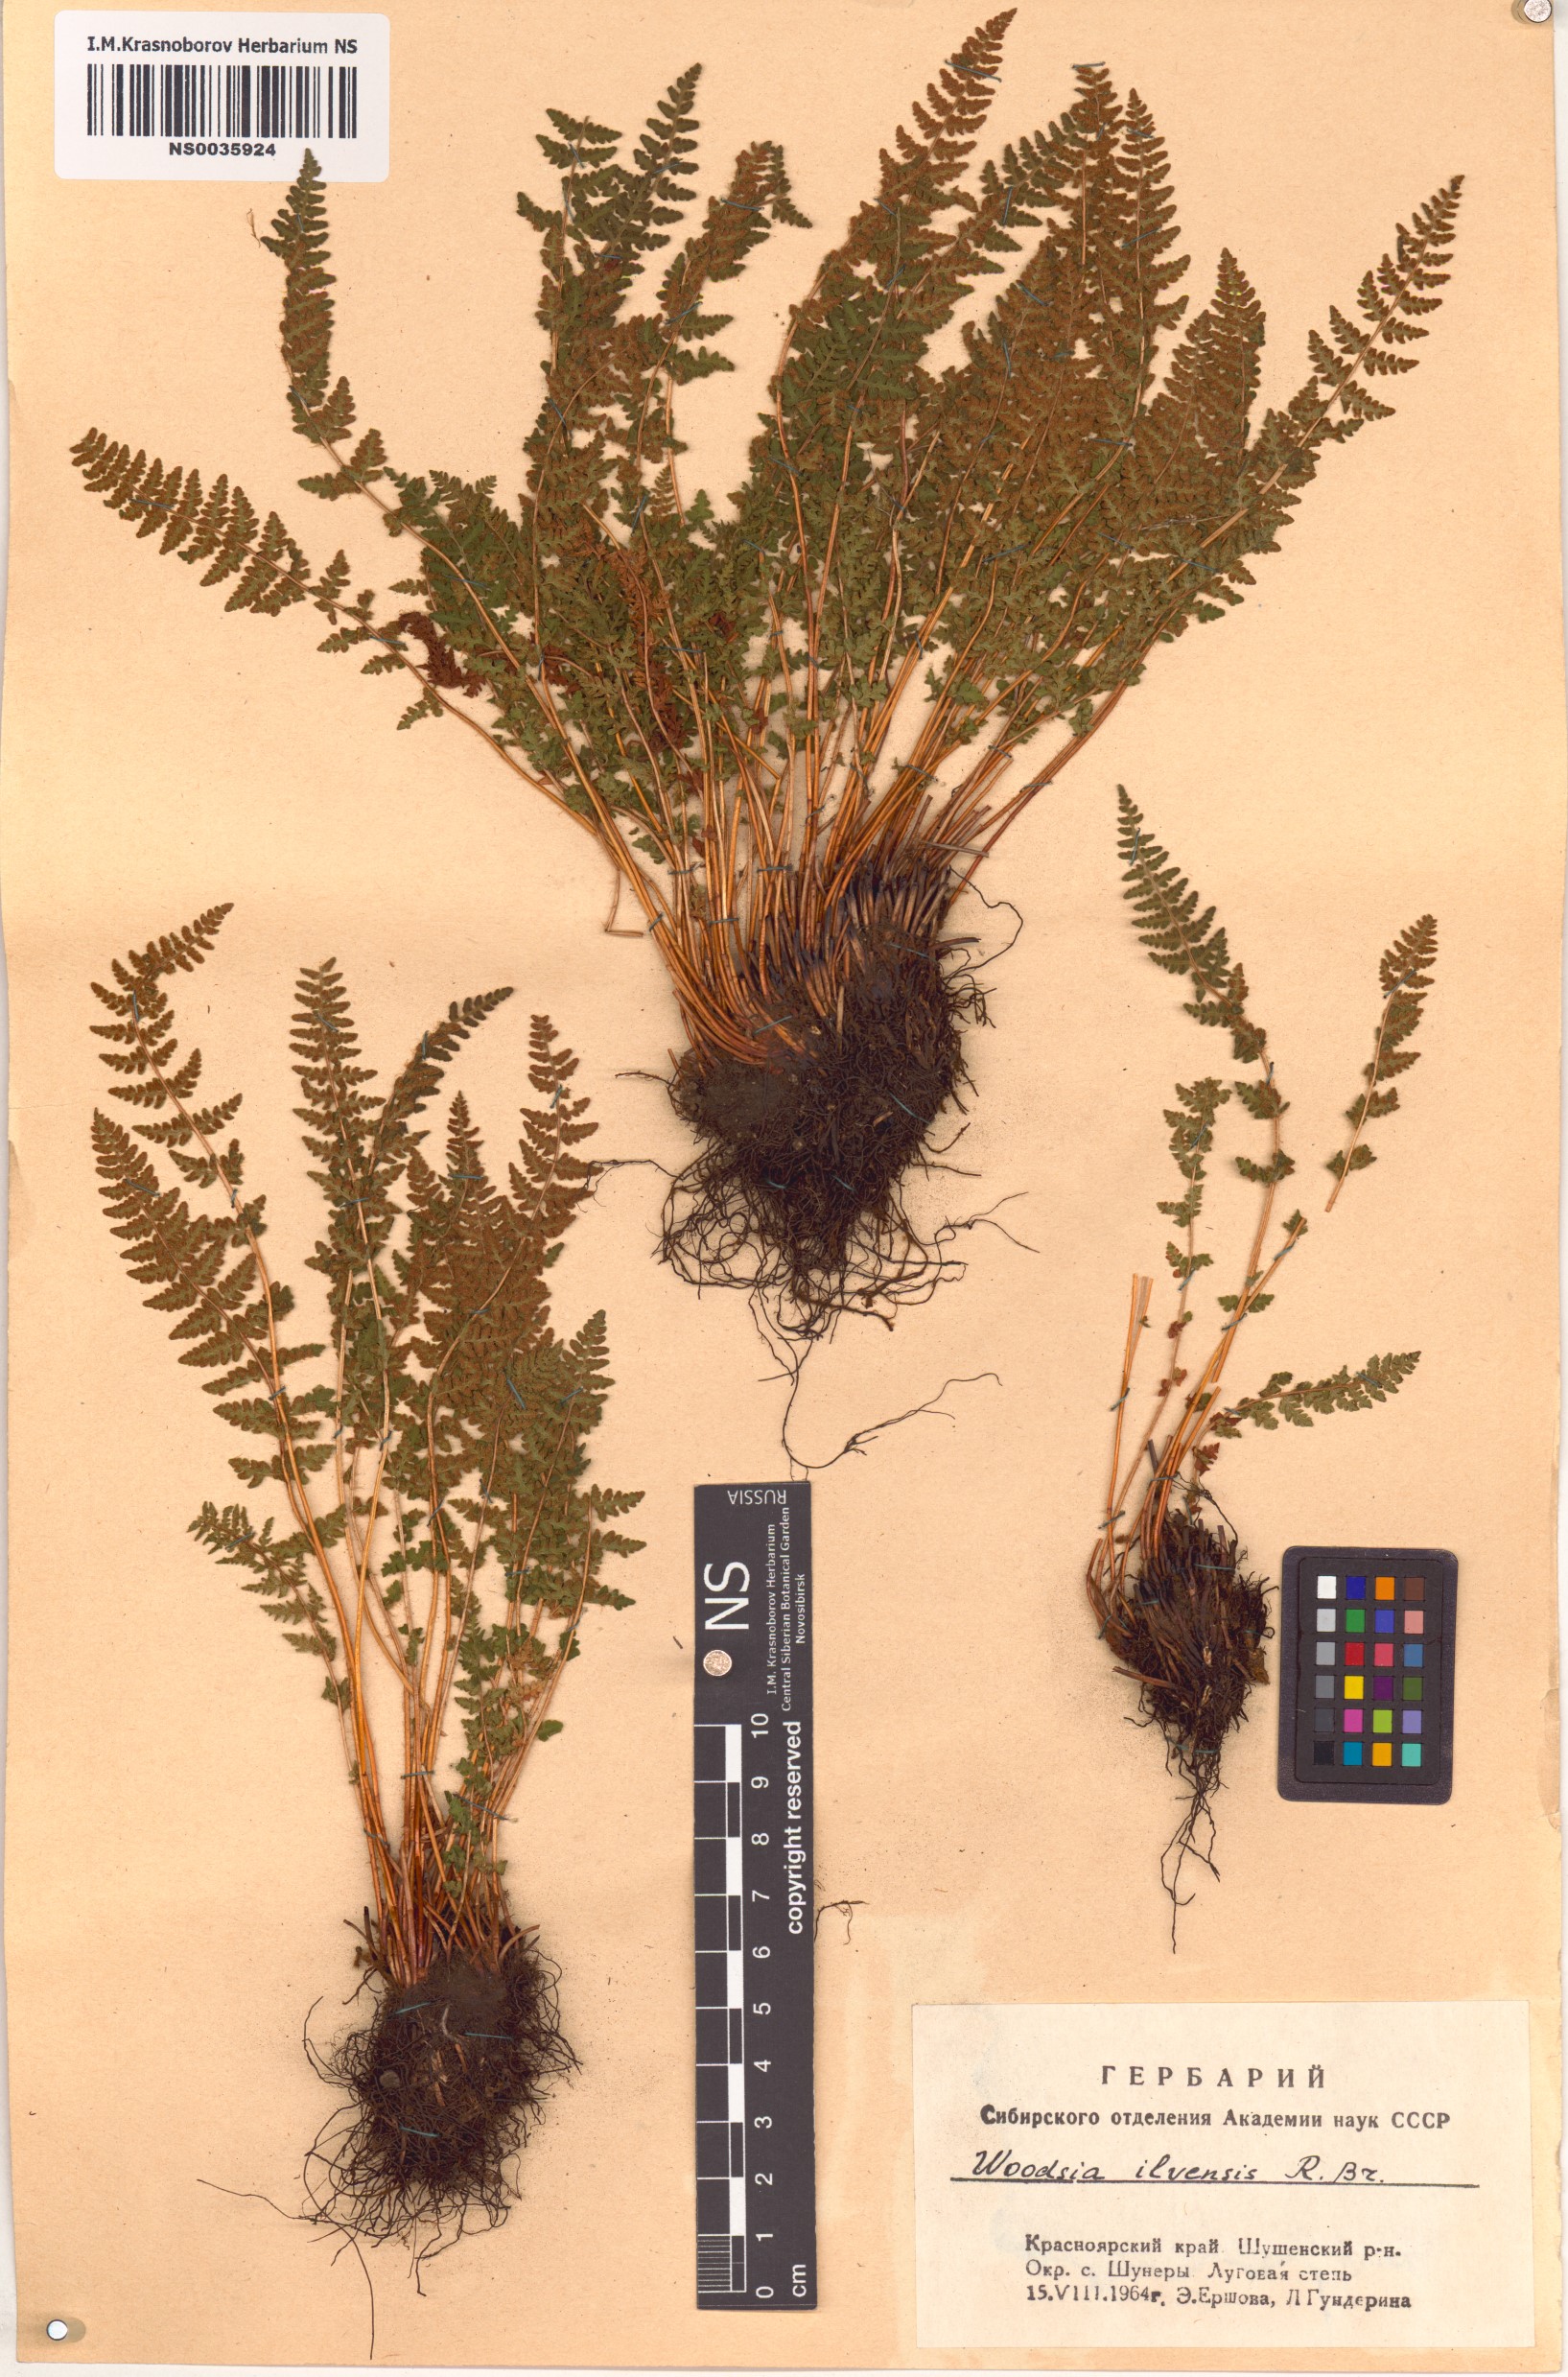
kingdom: Plantae
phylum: Tracheophyta
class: Polypodiopsida
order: Polypodiales
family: Woodsiaceae
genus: Woodsia
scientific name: Woodsia ilvensis
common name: Fragrant woodsia
